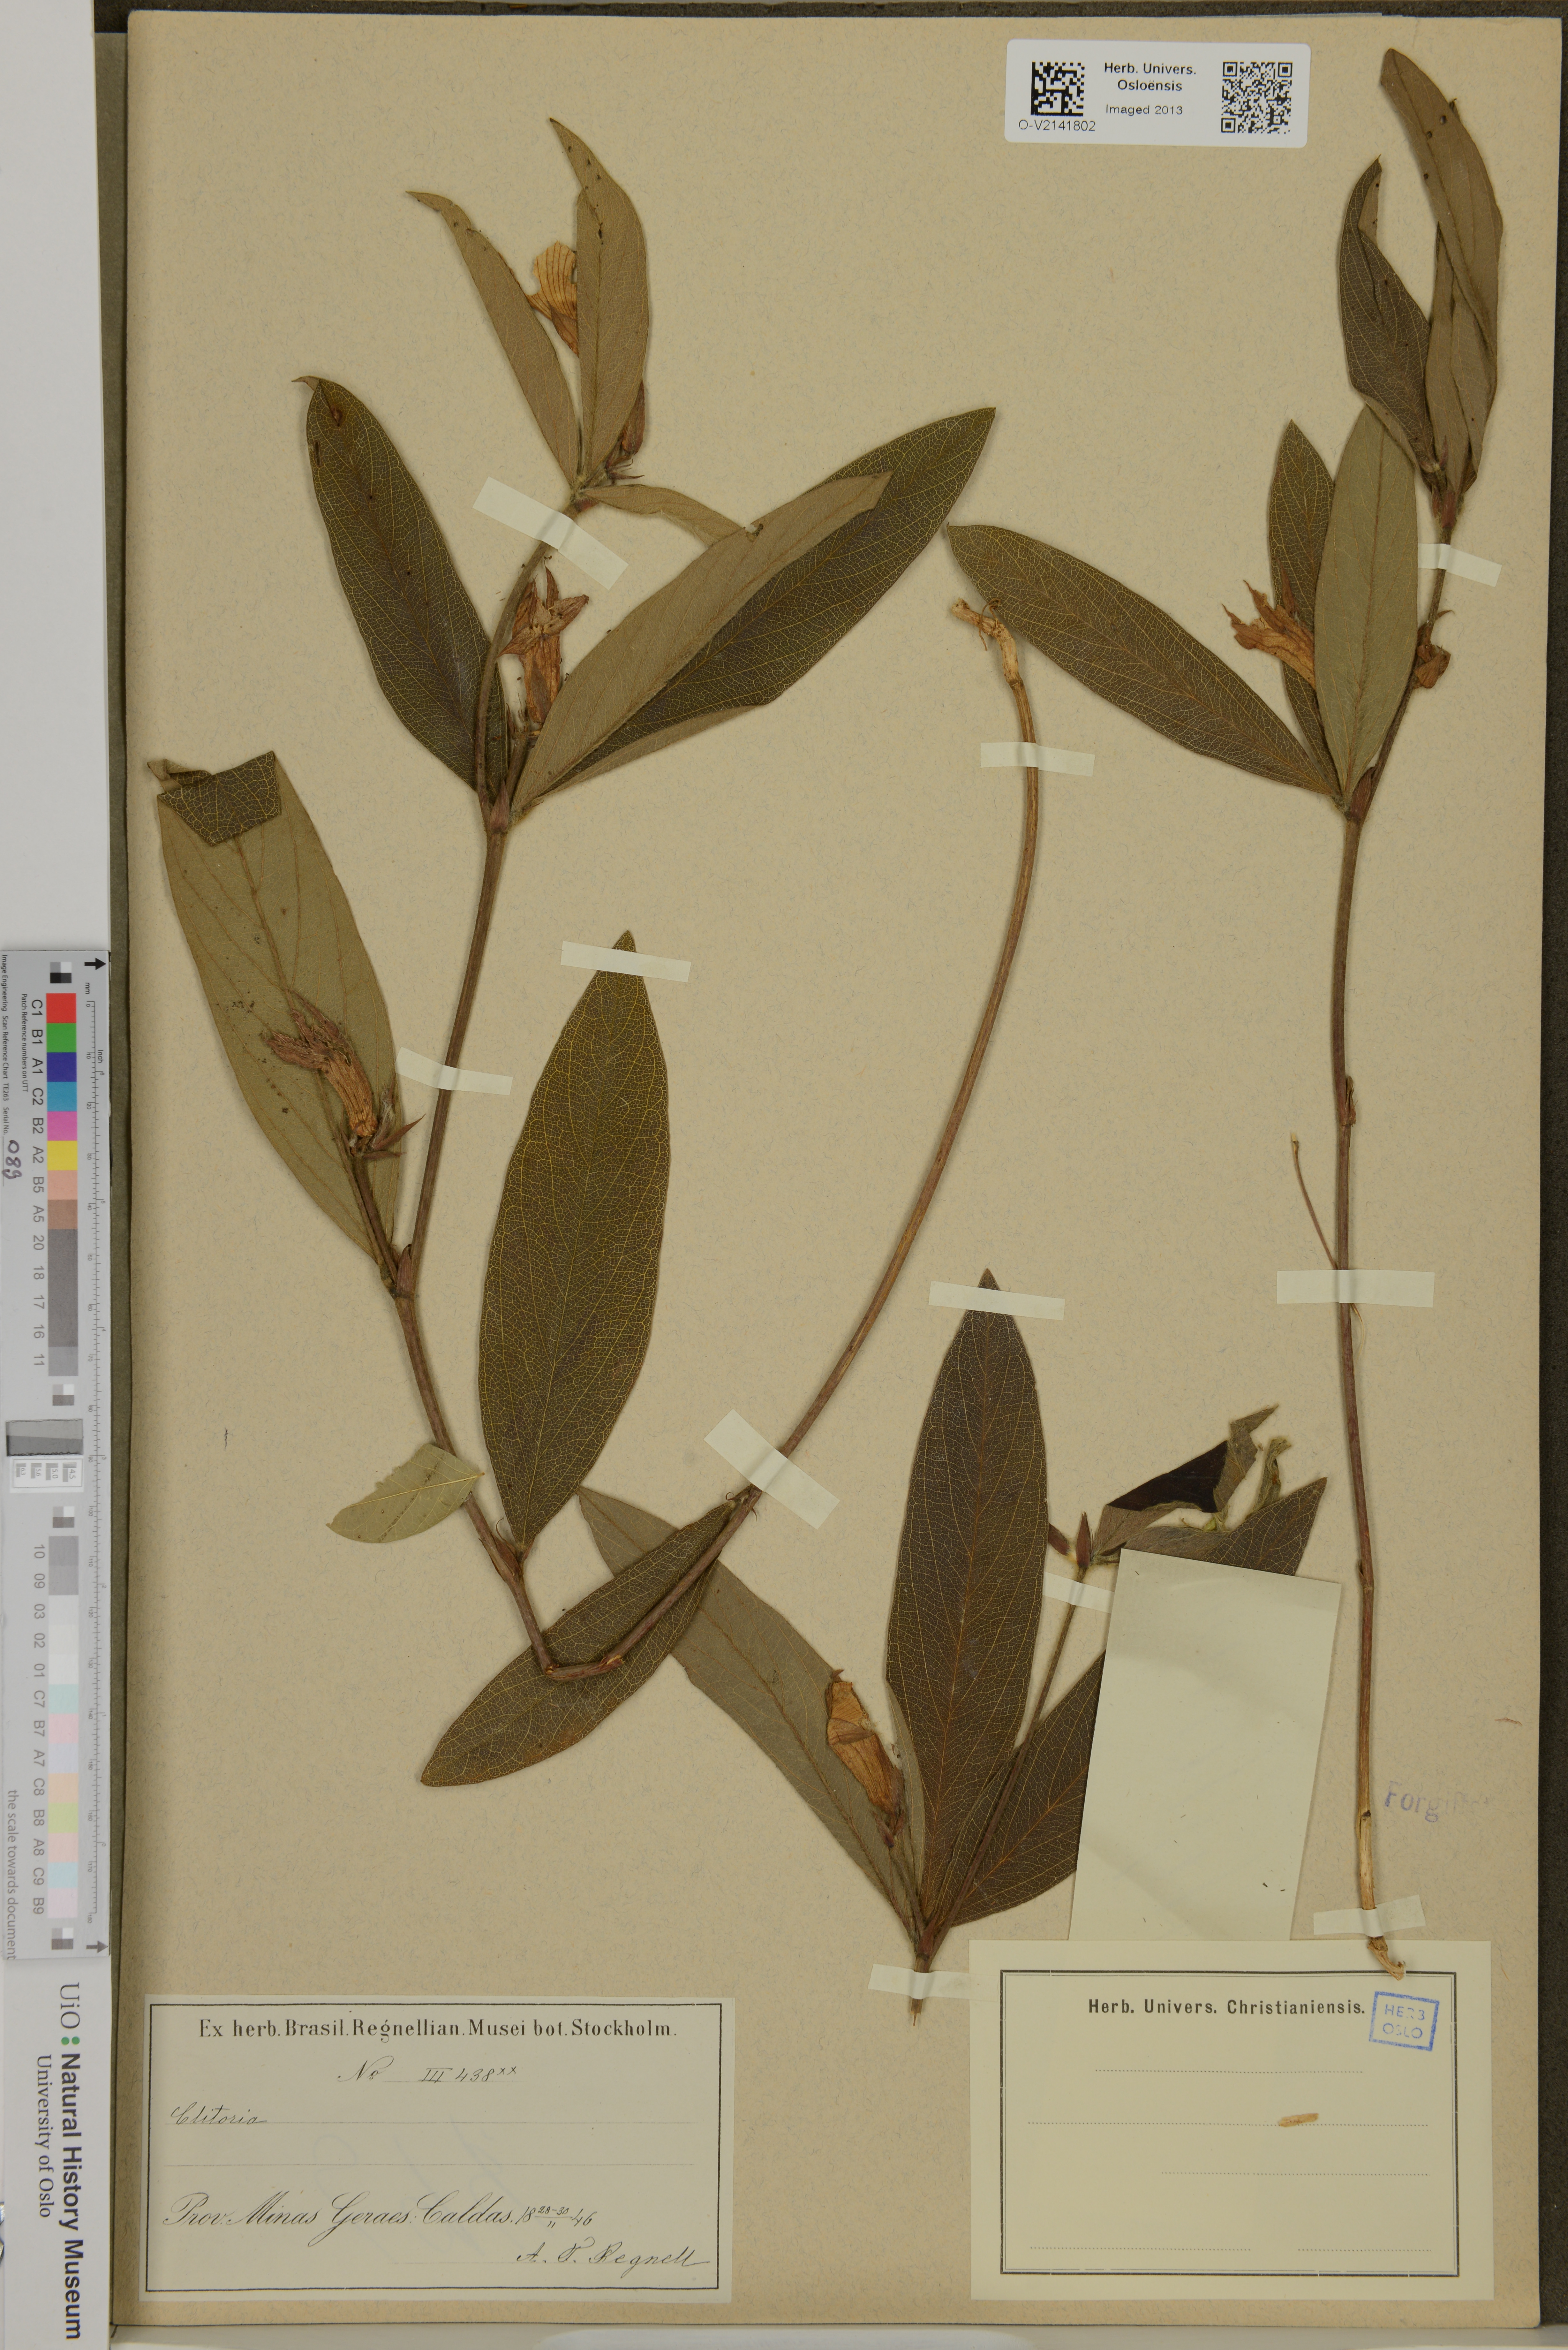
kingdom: Plantae
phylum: Tracheophyta
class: Magnoliopsida
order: Fabales
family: Fabaceae
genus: Clitoria
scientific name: Clitoria
